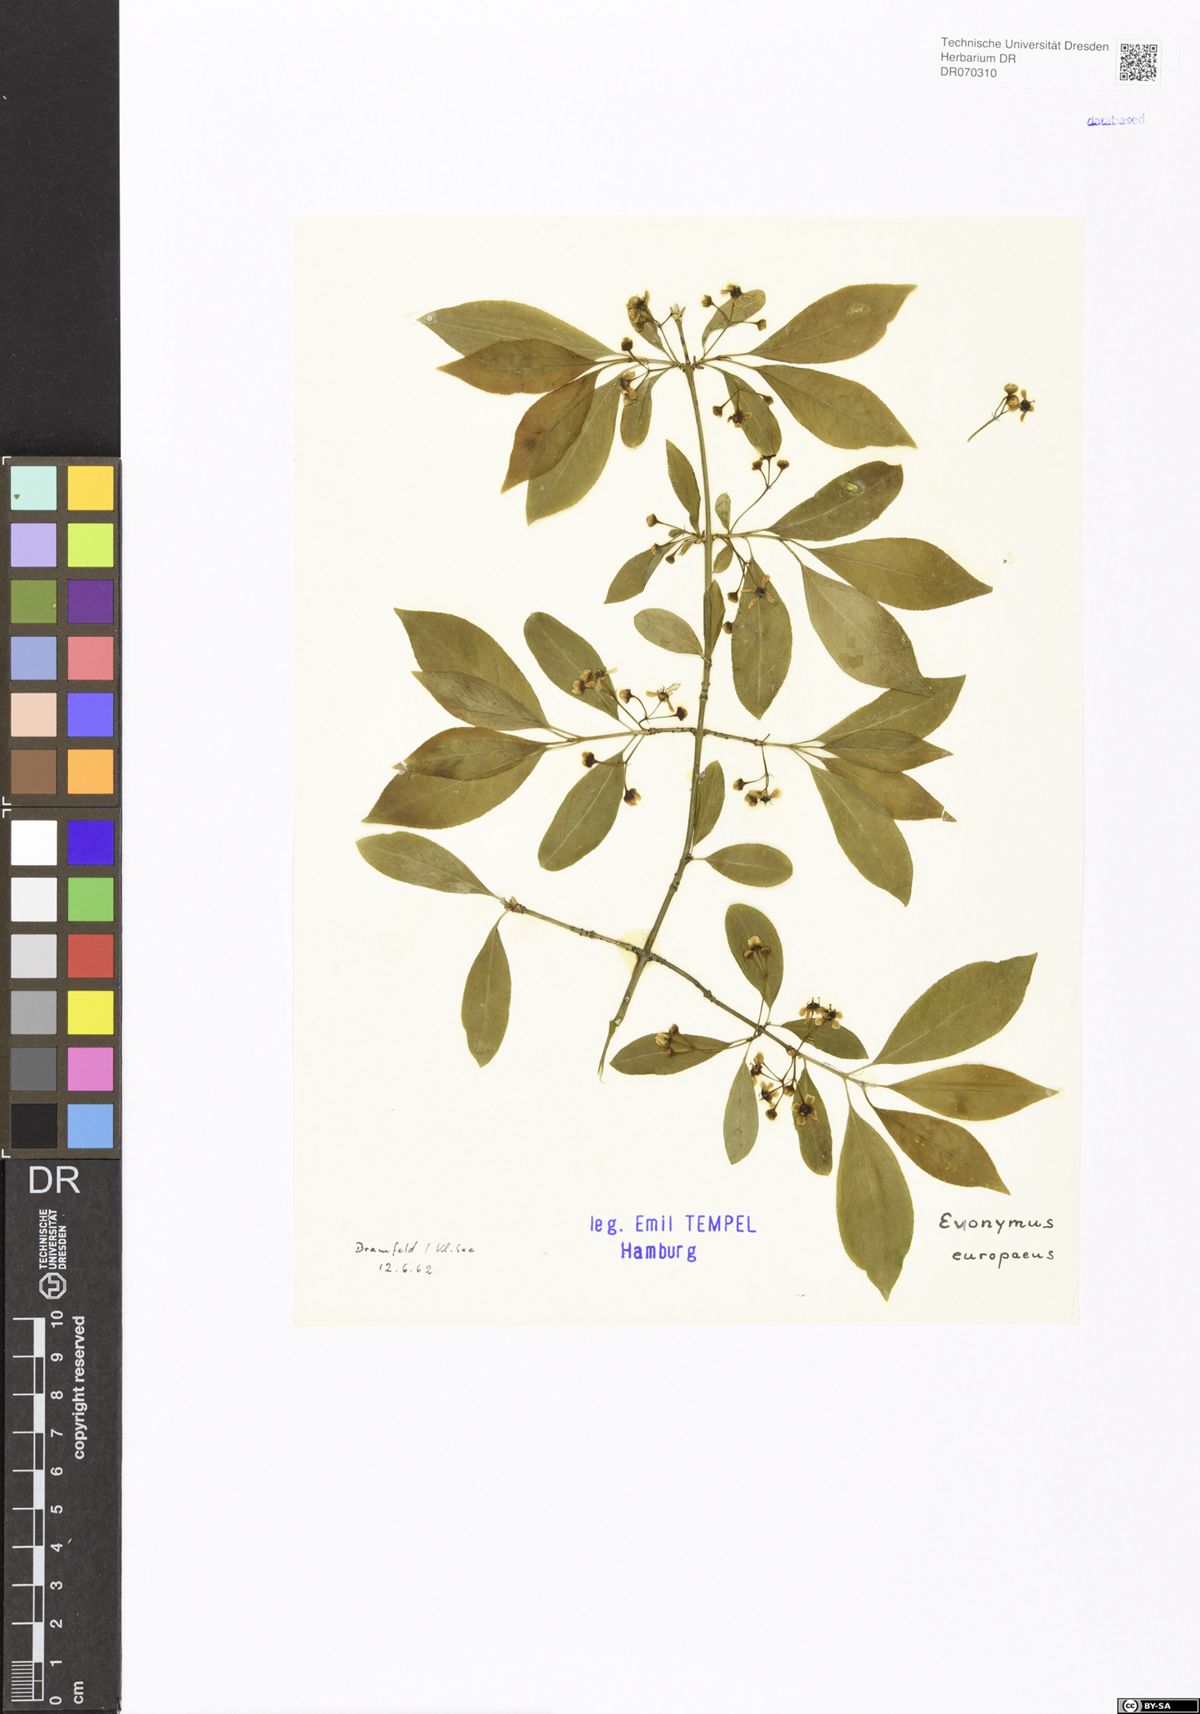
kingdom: Plantae
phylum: Tracheophyta
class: Magnoliopsida
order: Celastrales
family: Celastraceae
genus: Euonymus
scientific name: Euonymus europaeus
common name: Spindle
